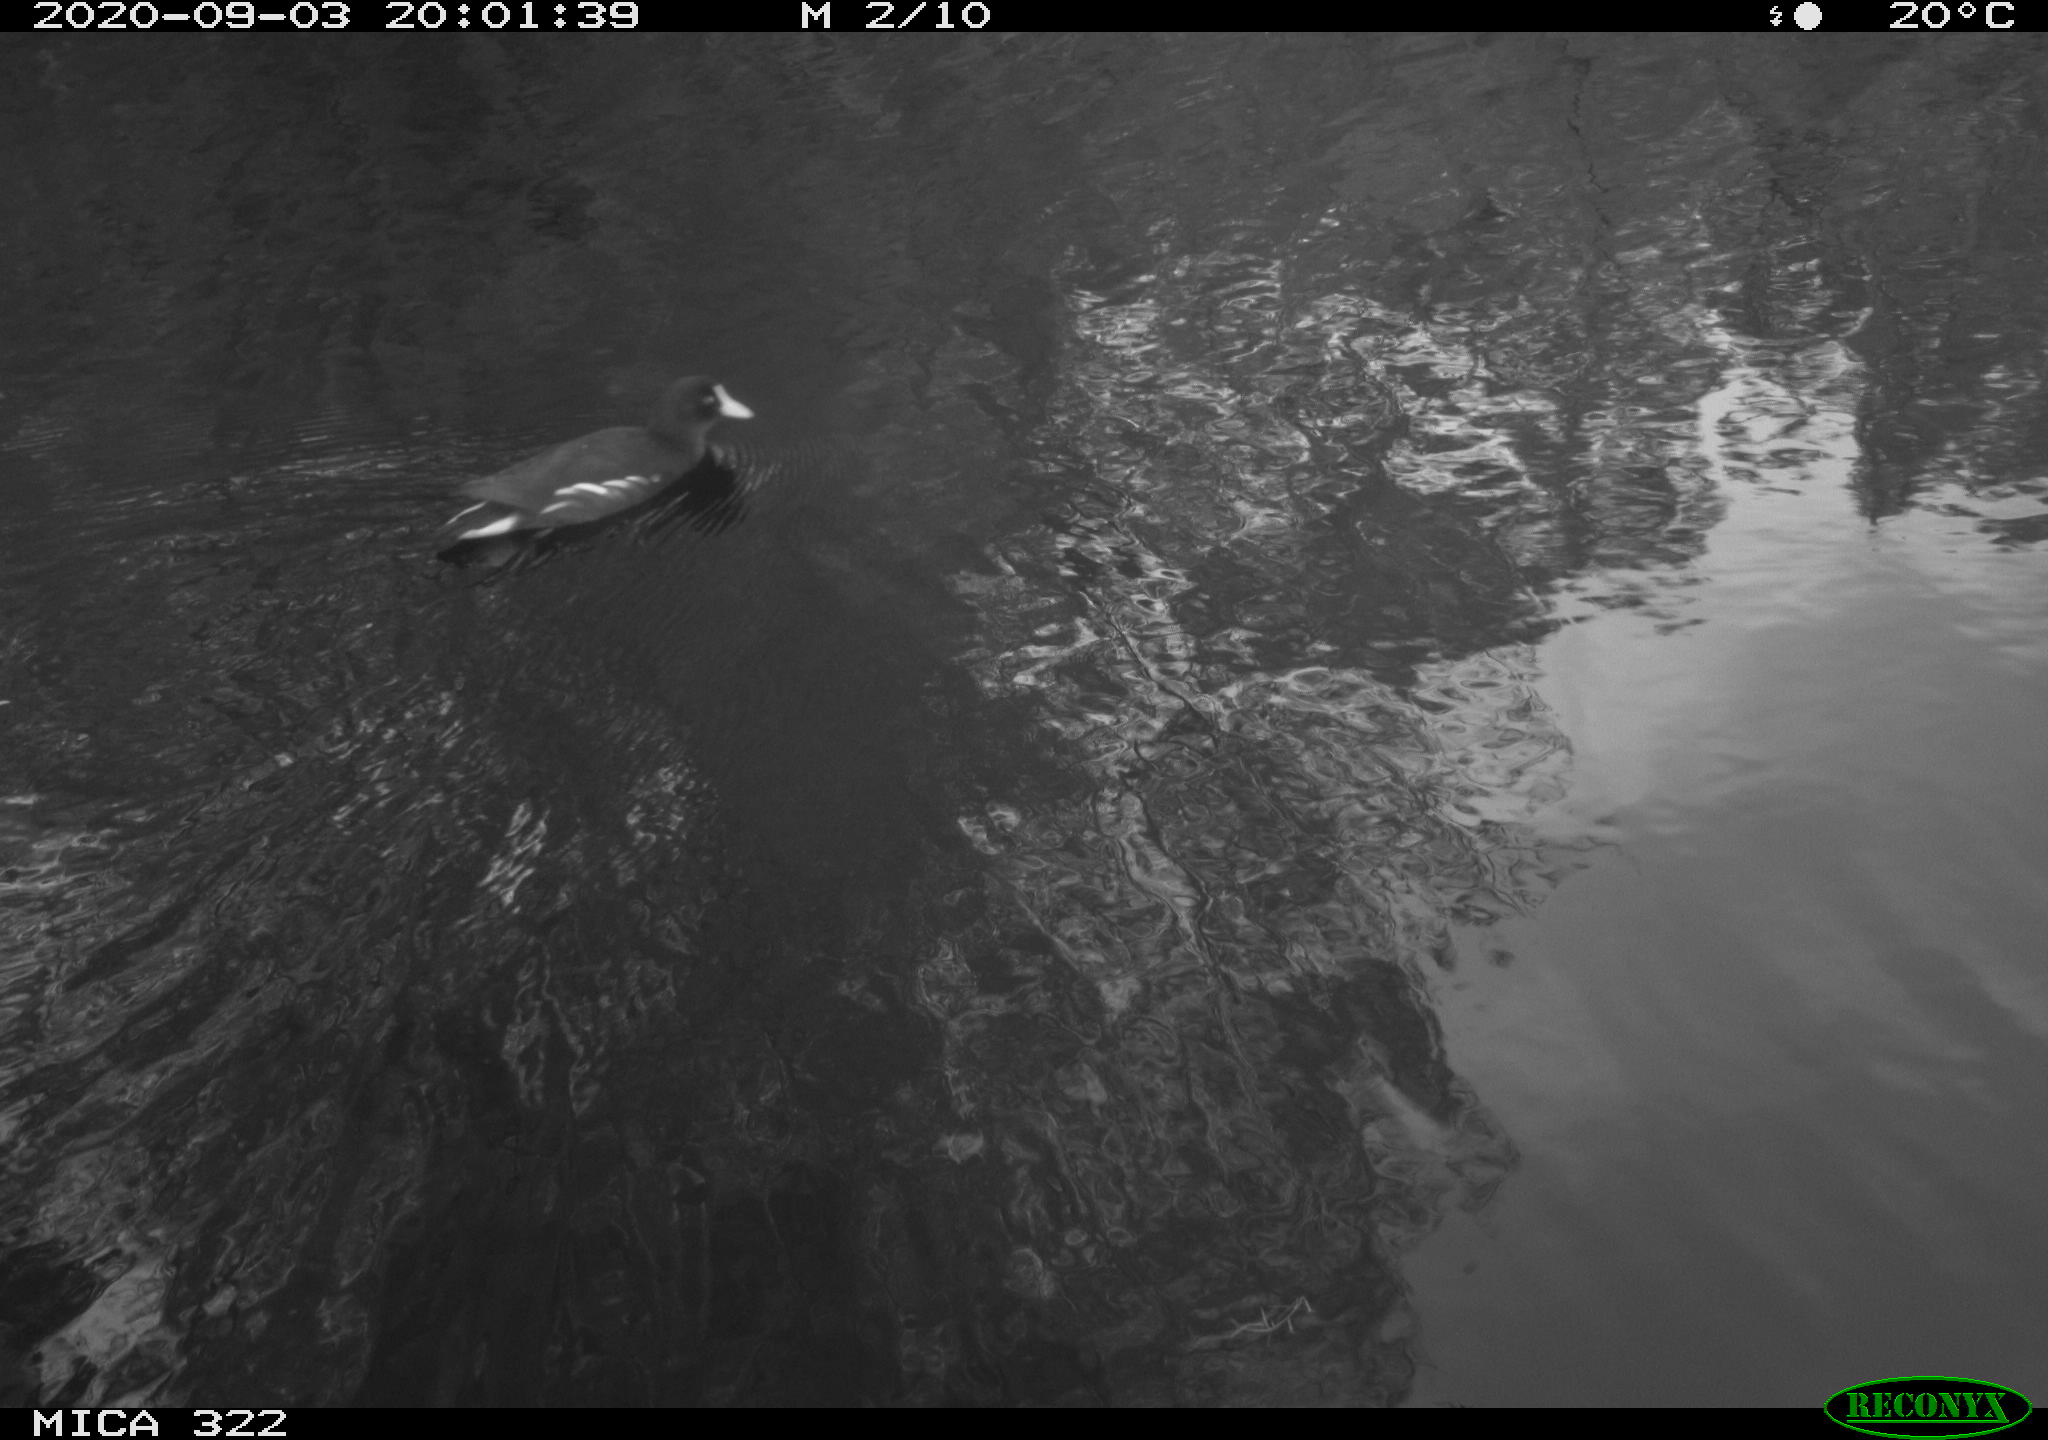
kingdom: Animalia
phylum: Chordata
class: Aves
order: Gruiformes
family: Rallidae
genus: Gallinula
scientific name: Gallinula chloropus
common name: Common moorhen
